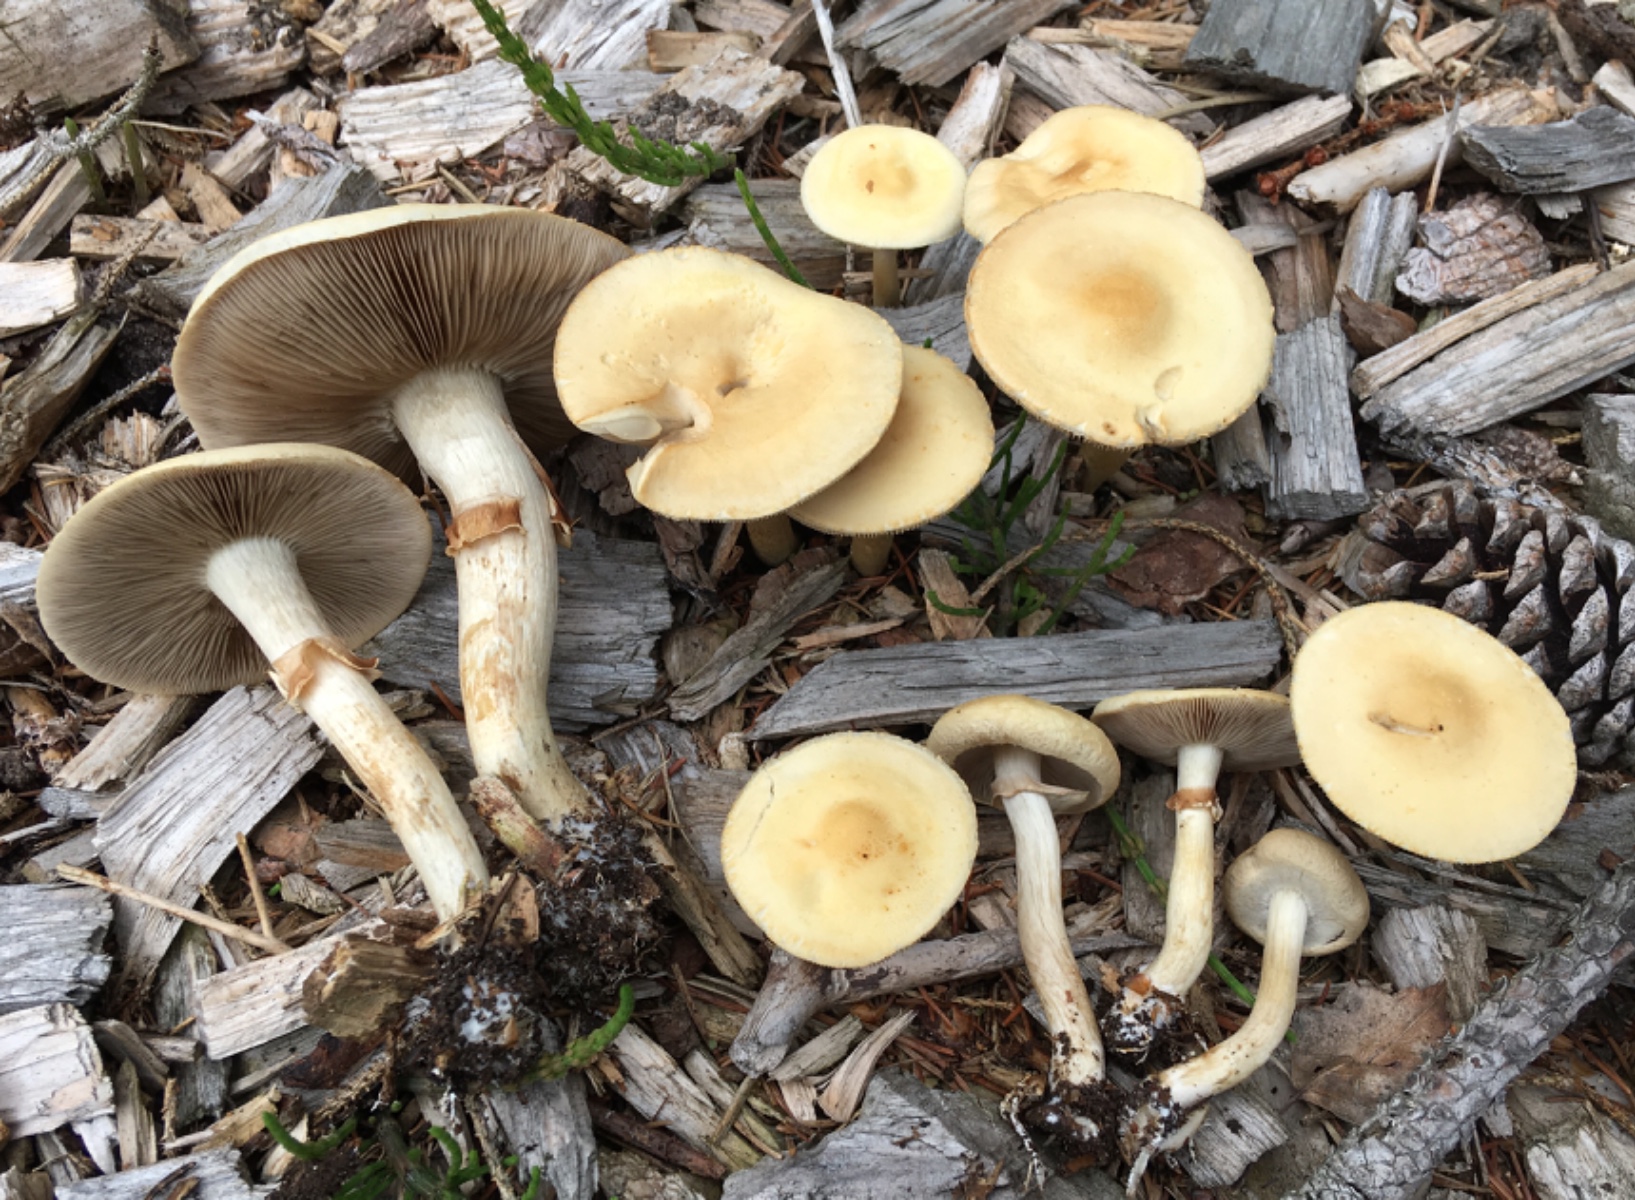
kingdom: Fungi
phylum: Basidiomycota
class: Agaricomycetes
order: Agaricales
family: Strophariaceae
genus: Agrocybe
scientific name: Agrocybe praecox
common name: tidlig agerhat
